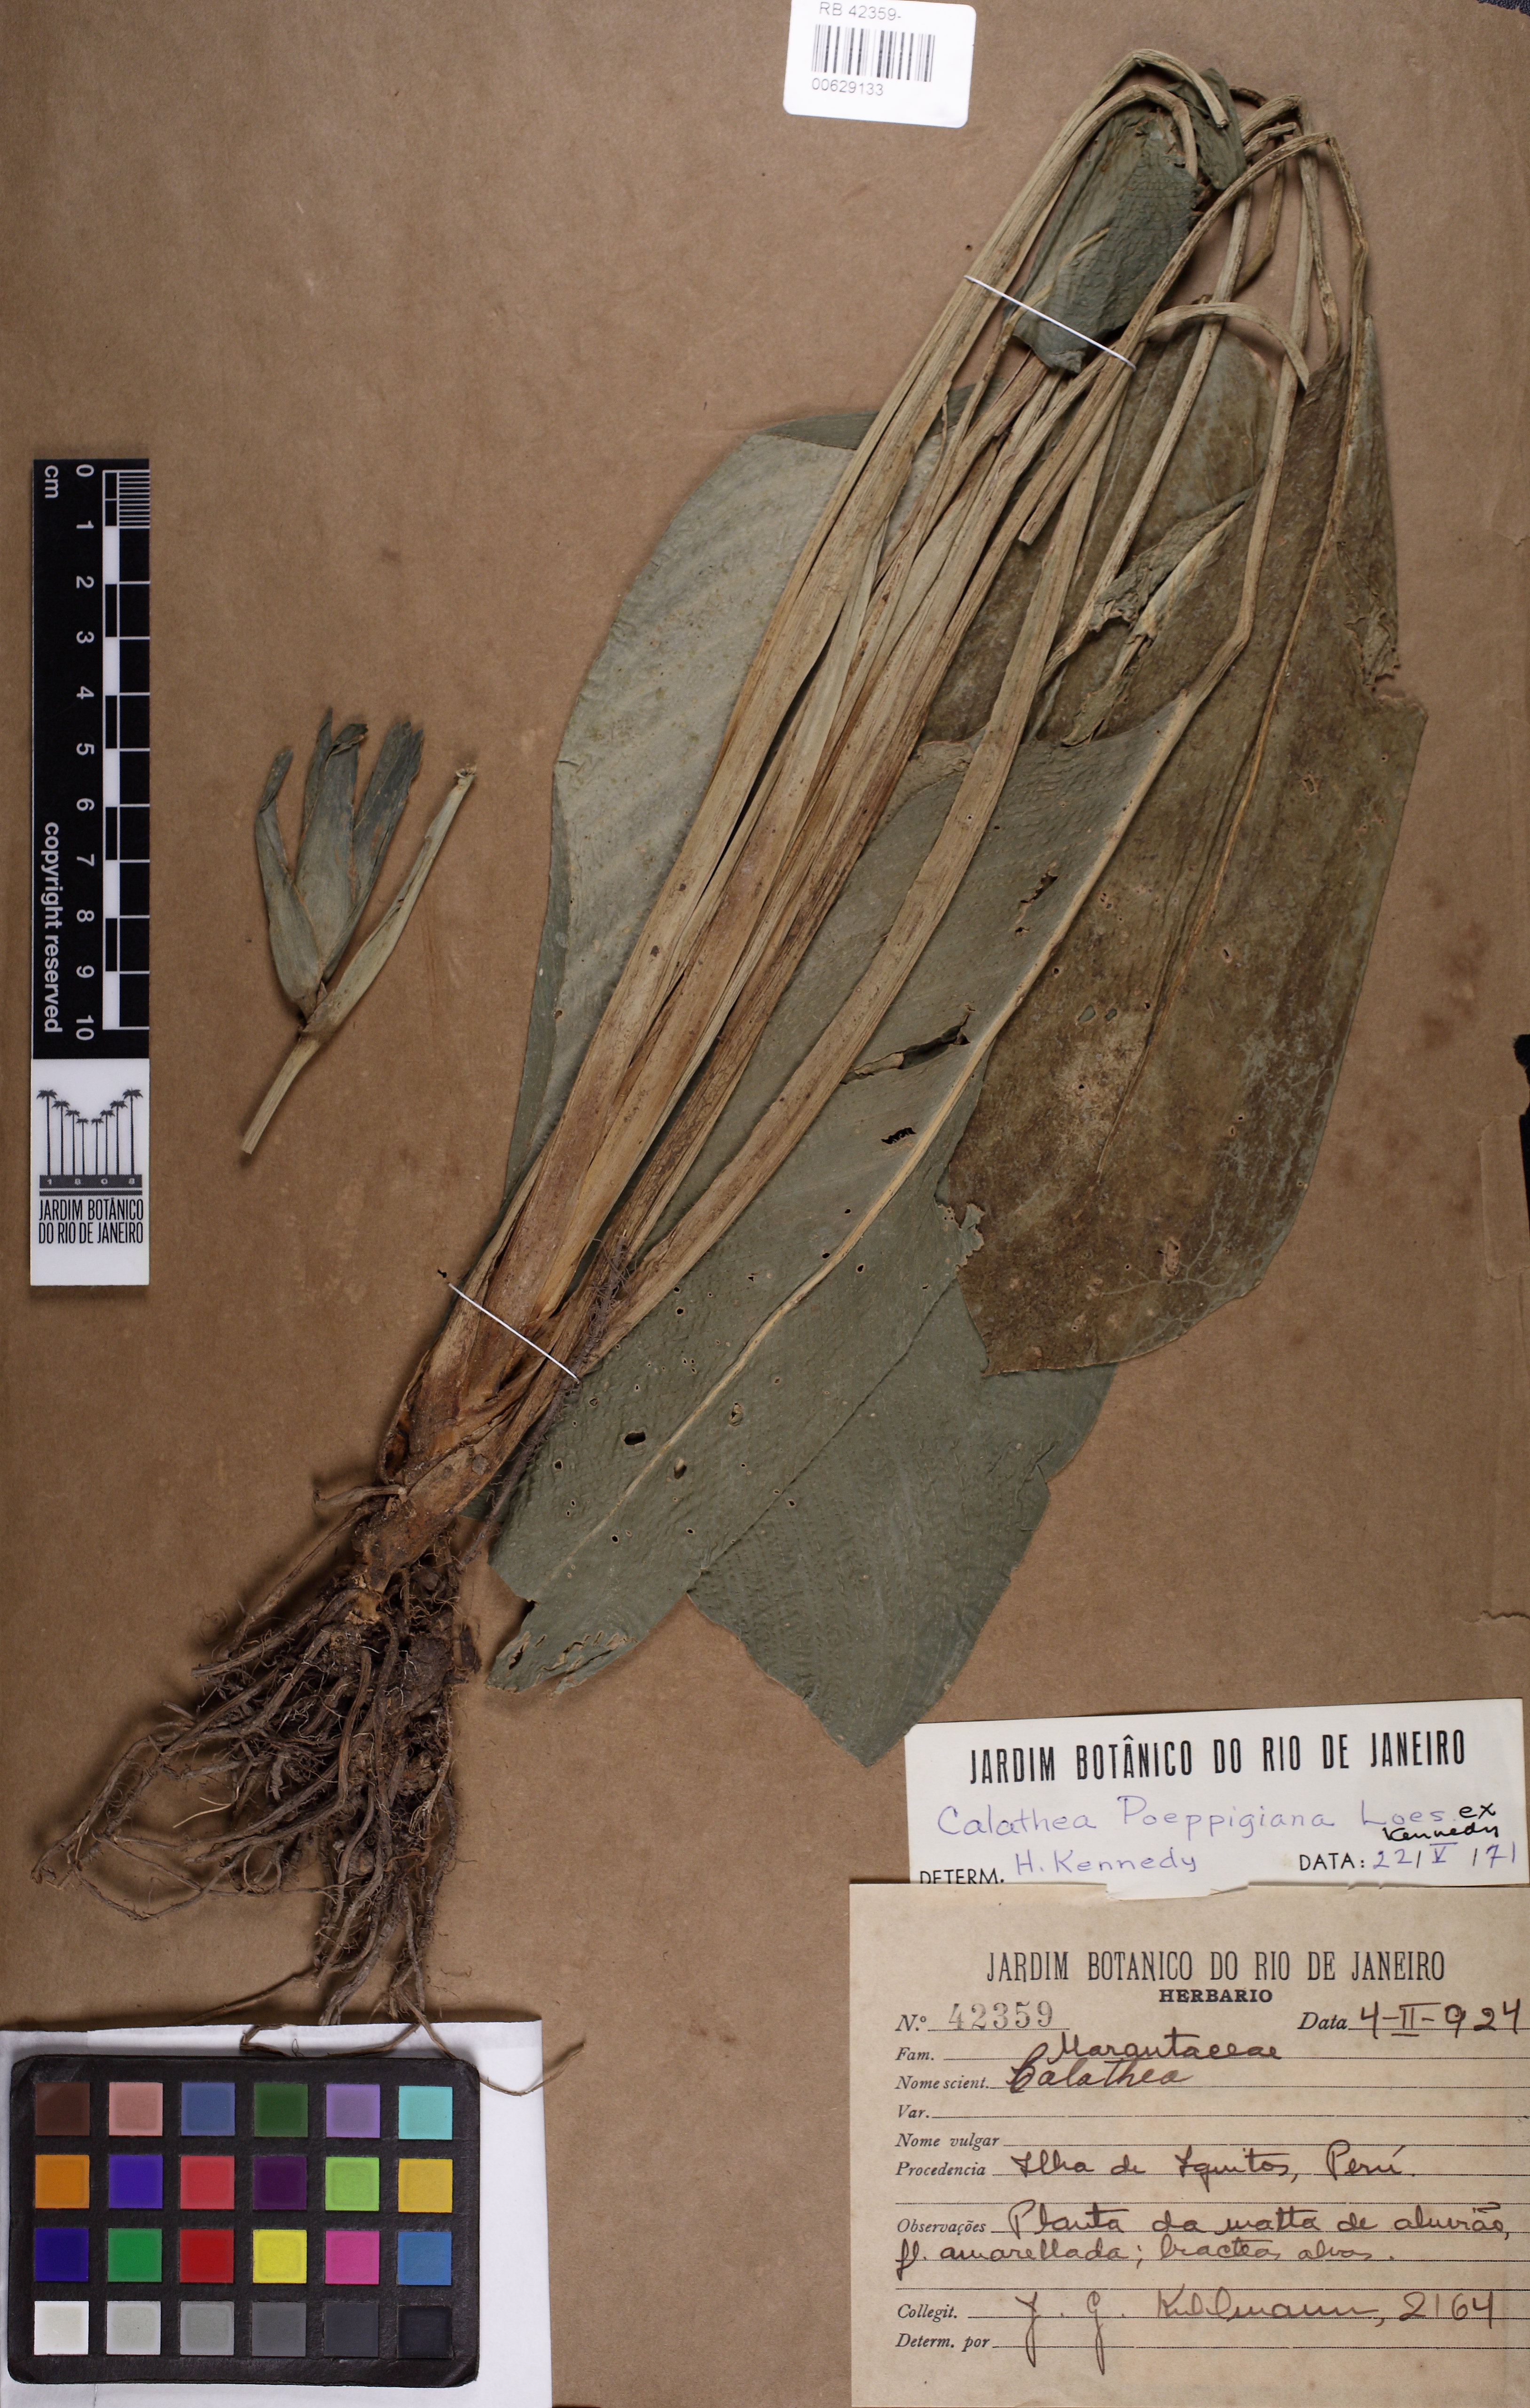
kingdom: Plantae
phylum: Tracheophyta
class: Liliopsida
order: Zingiberales
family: Marantaceae
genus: Goeppertia
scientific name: Goeppertia poeppigiana
